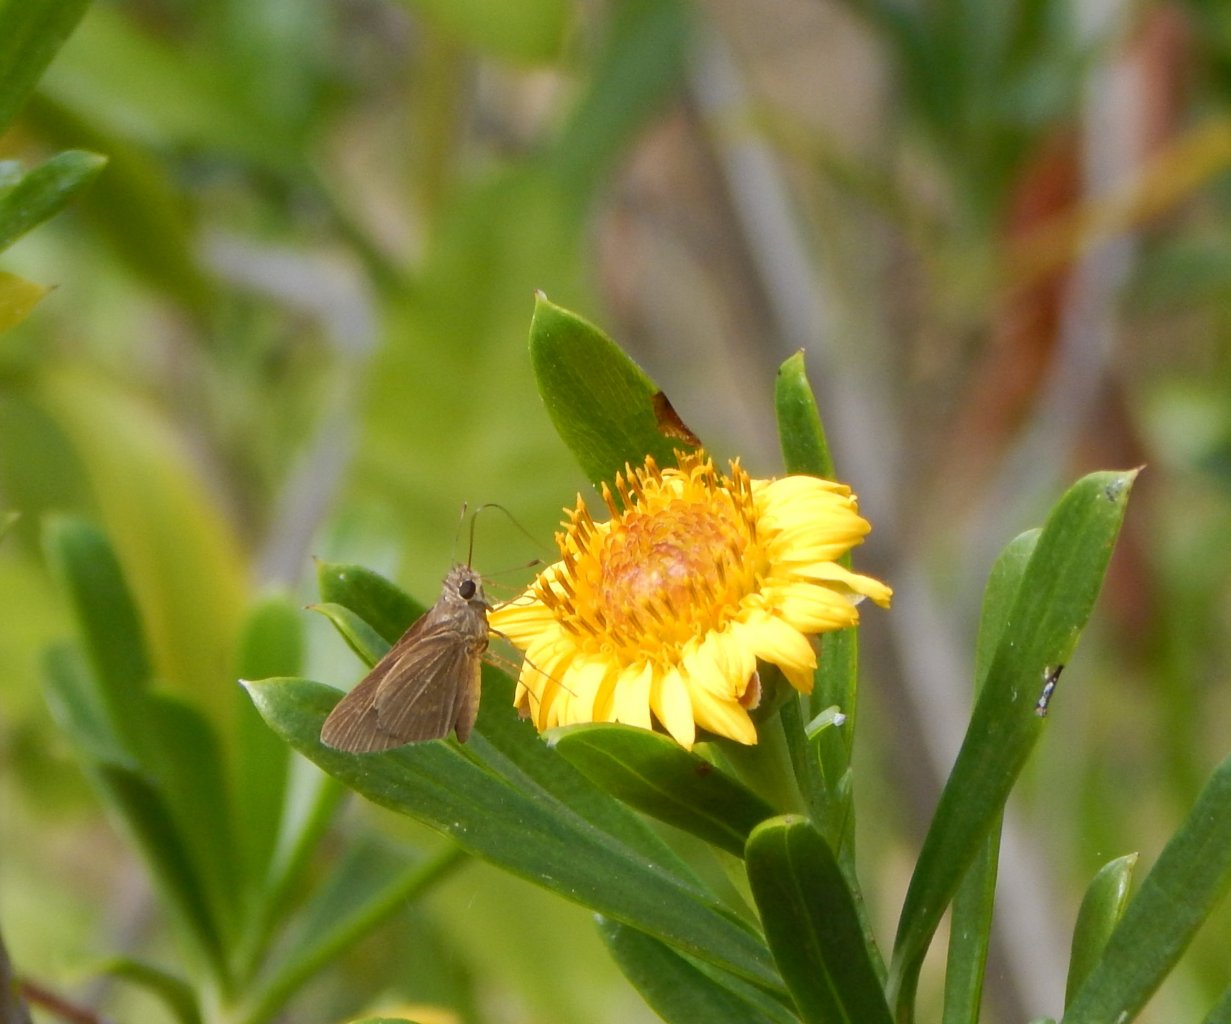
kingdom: Animalia
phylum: Arthropoda
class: Insecta
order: Lepidoptera
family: Hesperiidae
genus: Lerodea
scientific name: Lerodea eufala
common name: Eufala Skipper
